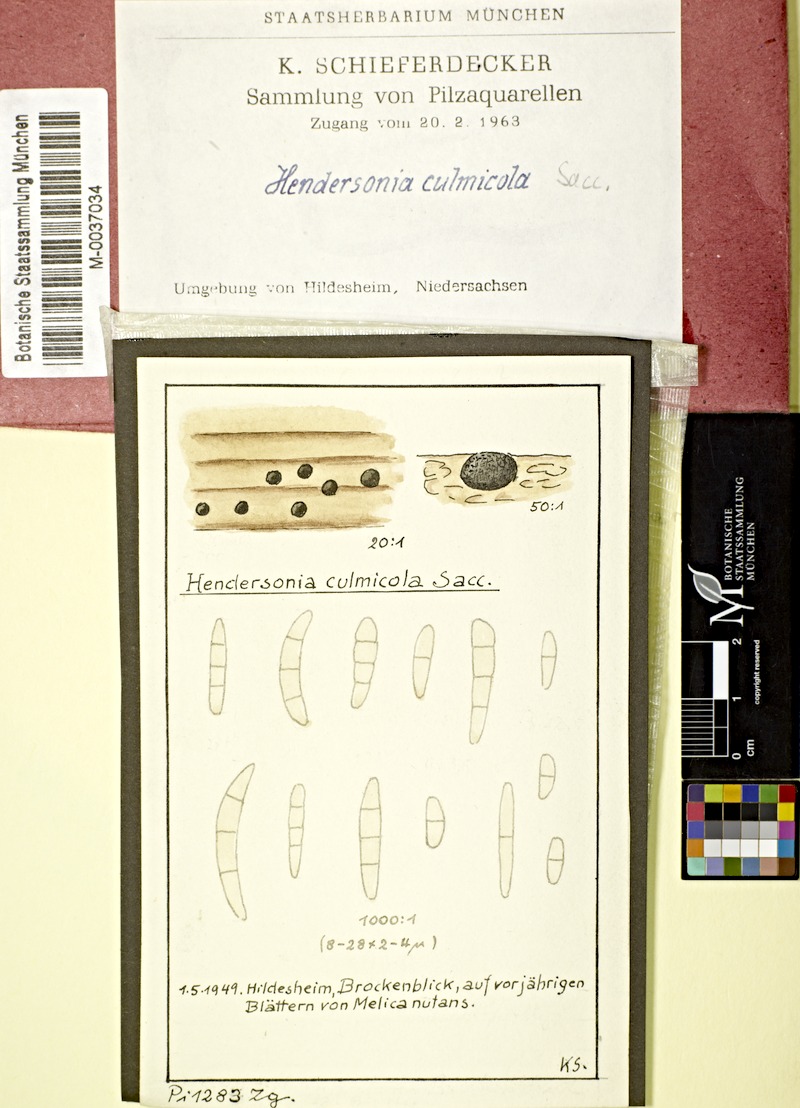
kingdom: Fungi
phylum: Ascomycota
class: Dothideomycetes
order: Pleosporales
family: Phaeosphaeriaceae
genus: Stagonospora
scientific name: Stagonospora culmicola
